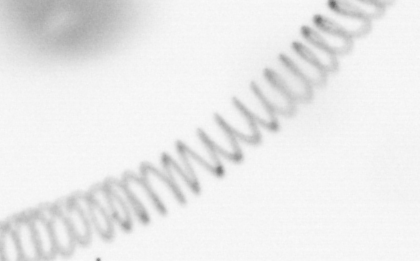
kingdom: Chromista
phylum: Ochrophyta
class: Bacillariophyceae
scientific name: Bacillariophyceae
